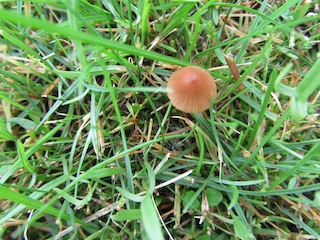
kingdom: Fungi
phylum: Basidiomycota
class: Agaricomycetes
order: Agaricales
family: Bolbitiaceae
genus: Conocybe
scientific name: Conocybe pulchella
